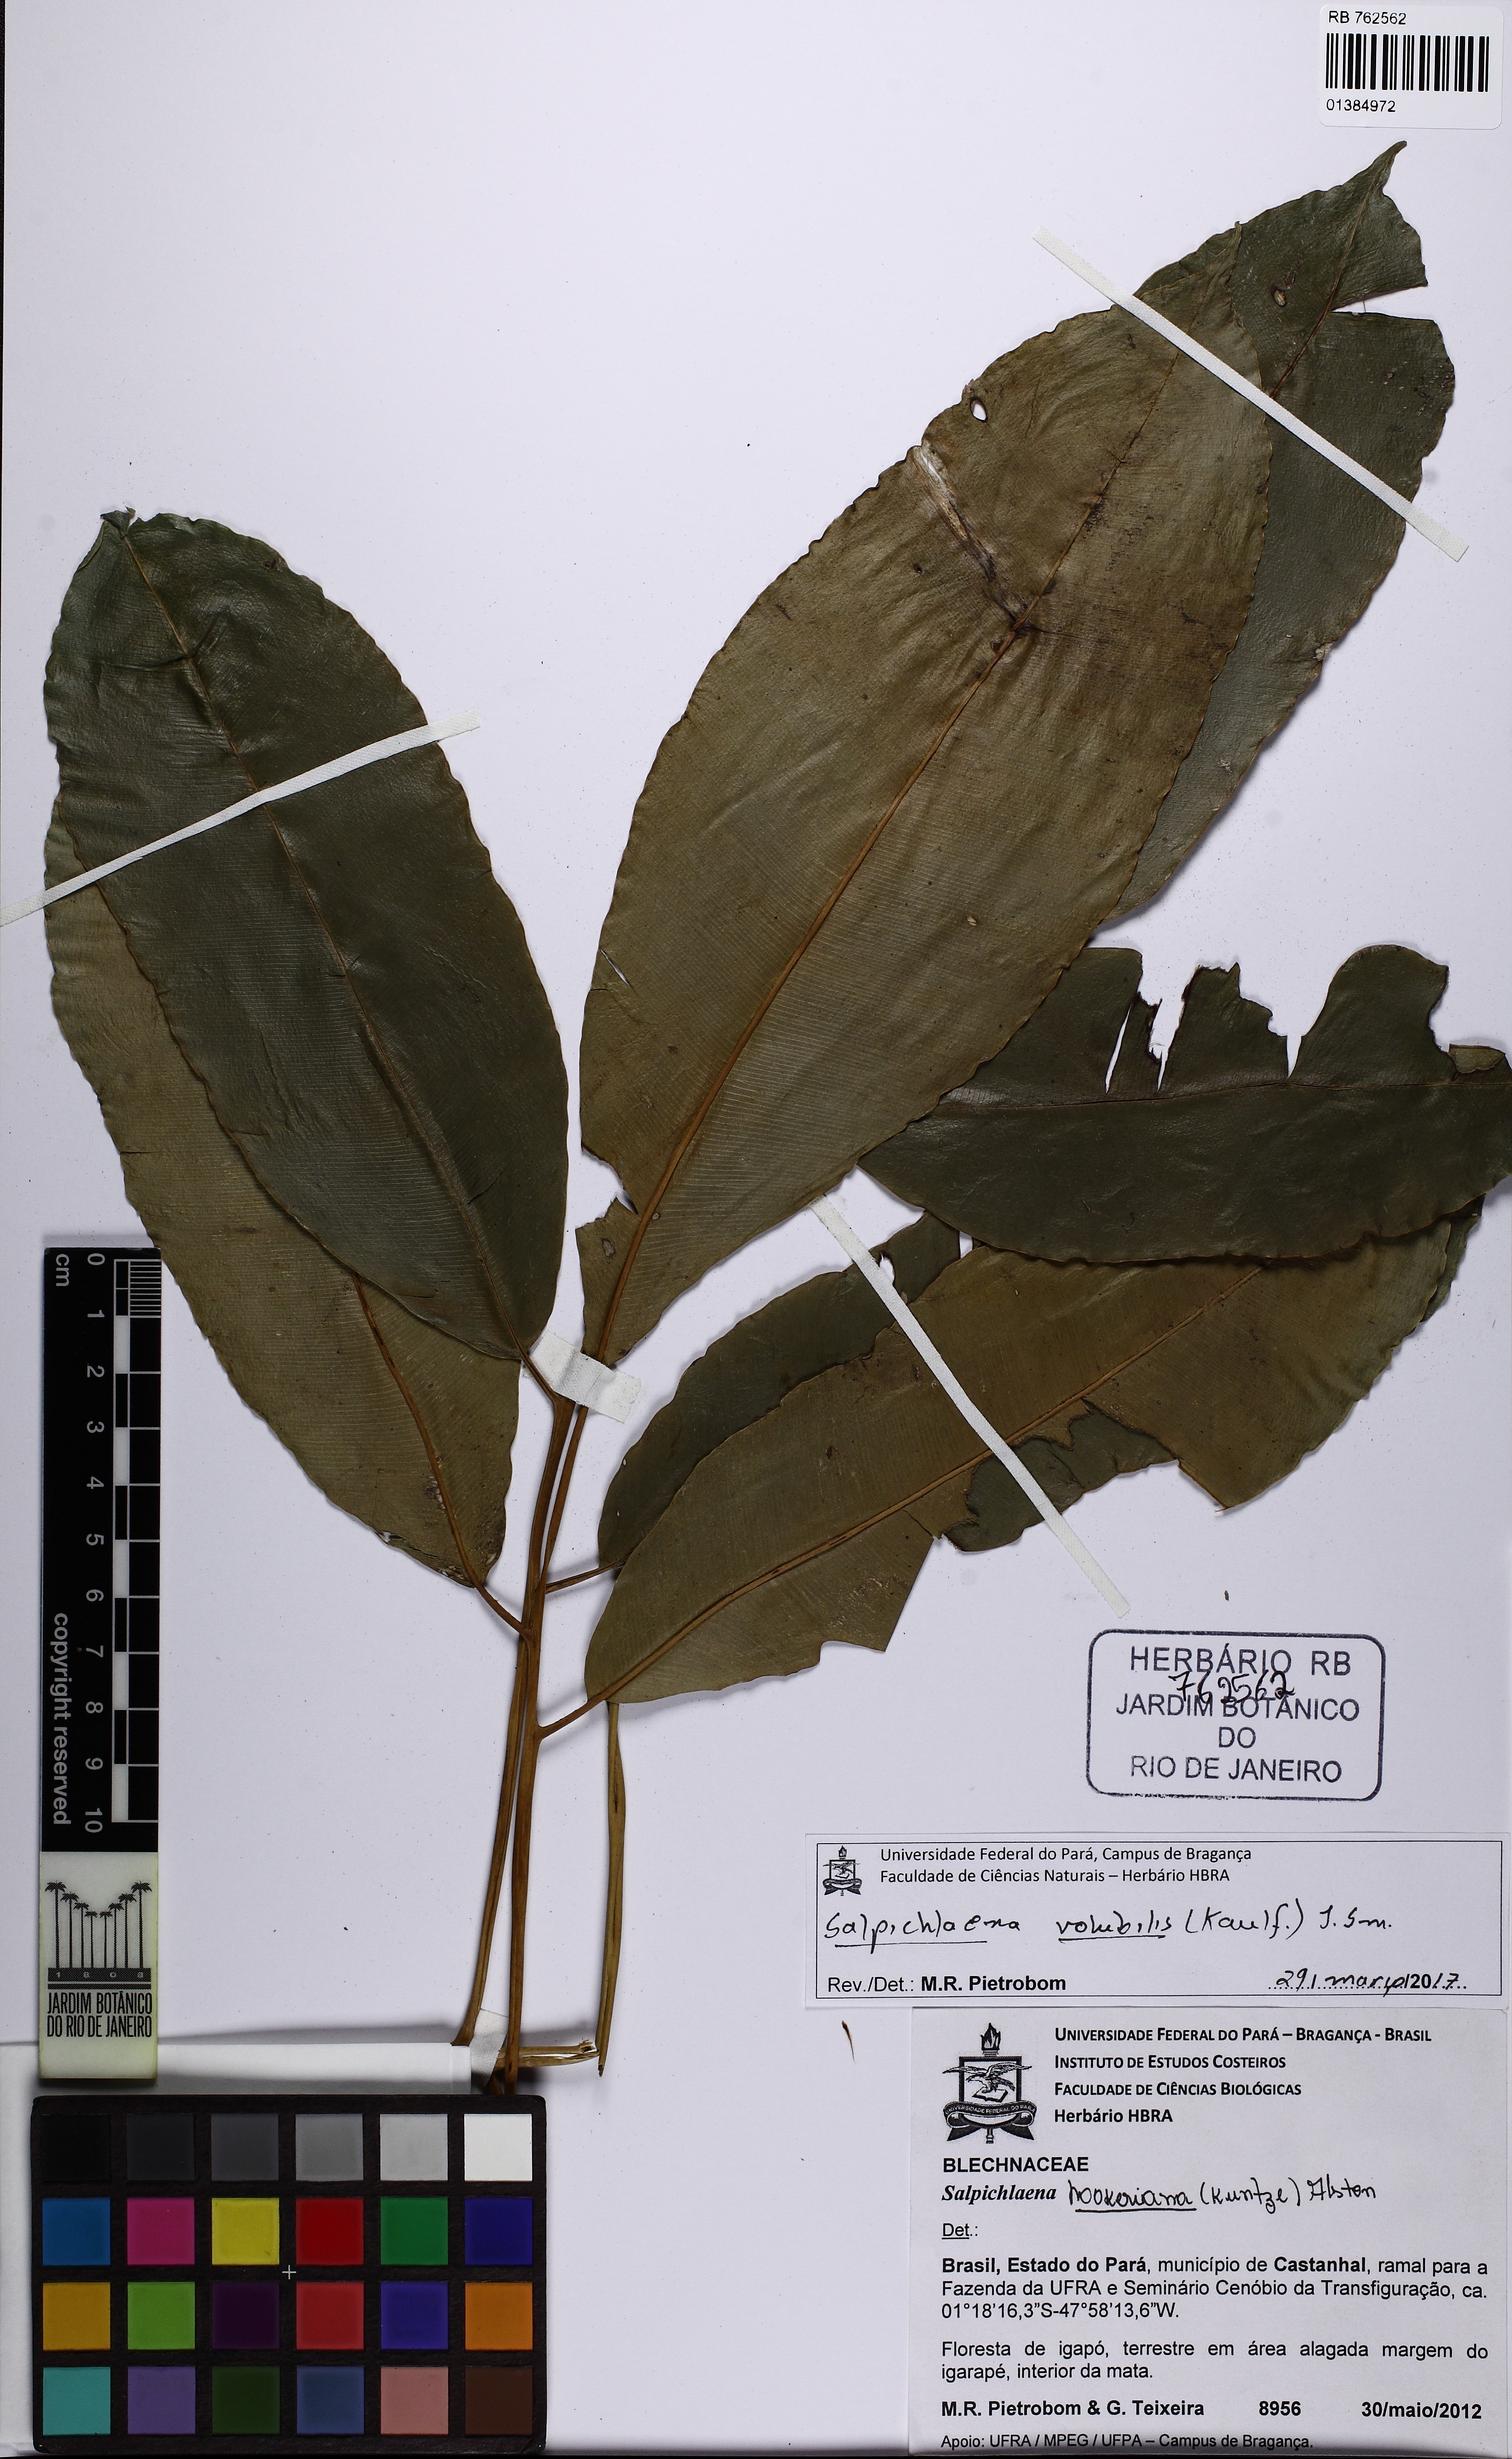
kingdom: Plantae
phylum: Tracheophyta
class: Polypodiopsida
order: Polypodiales
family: Blechnaceae
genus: Salpichlaena
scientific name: Salpichlaena volubilis
